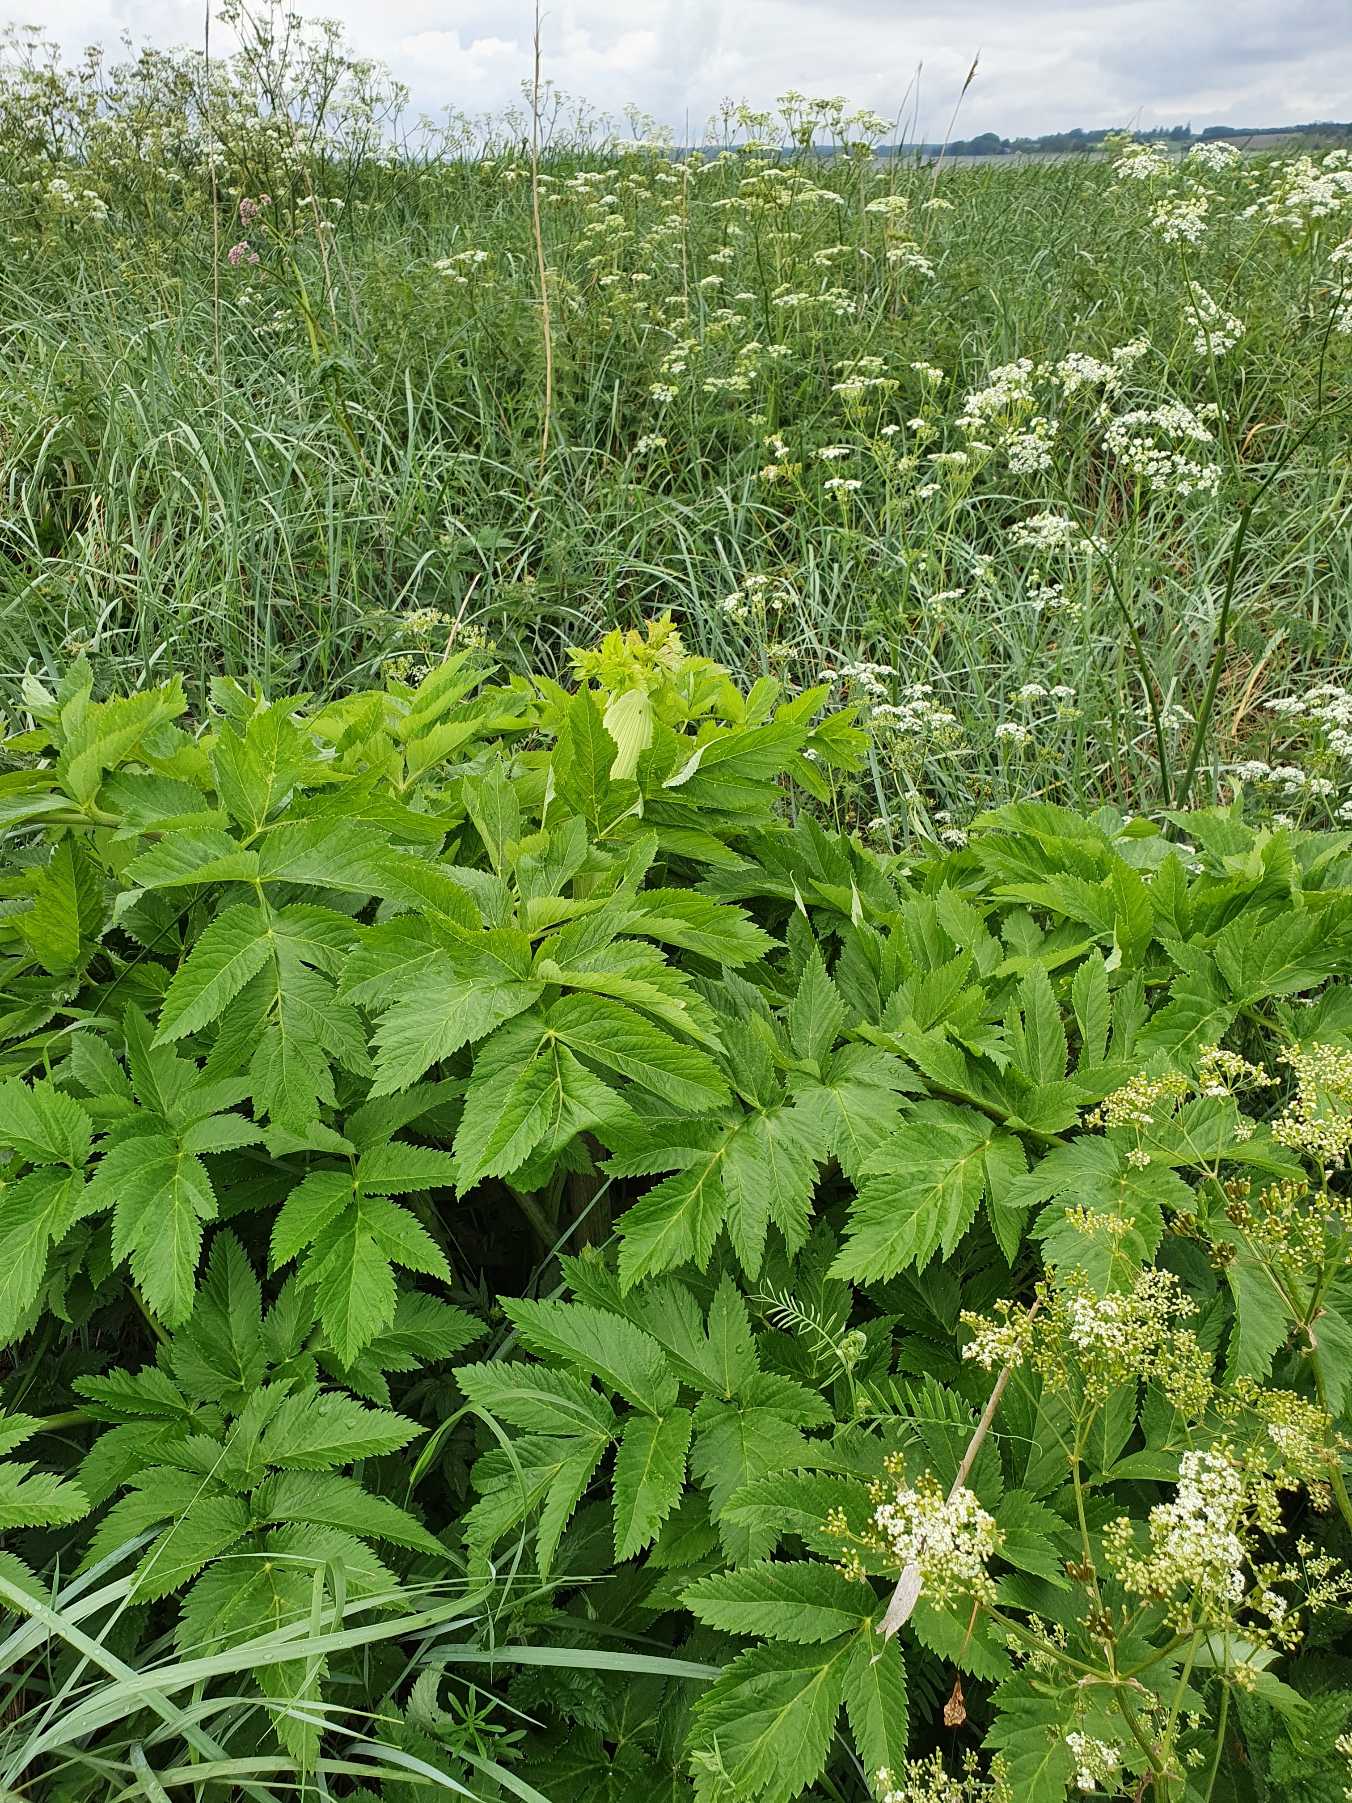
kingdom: Plantae
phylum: Tracheophyta
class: Magnoliopsida
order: Apiales
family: Apiaceae
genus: Angelica
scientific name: Angelica archangelica
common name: Kvan
